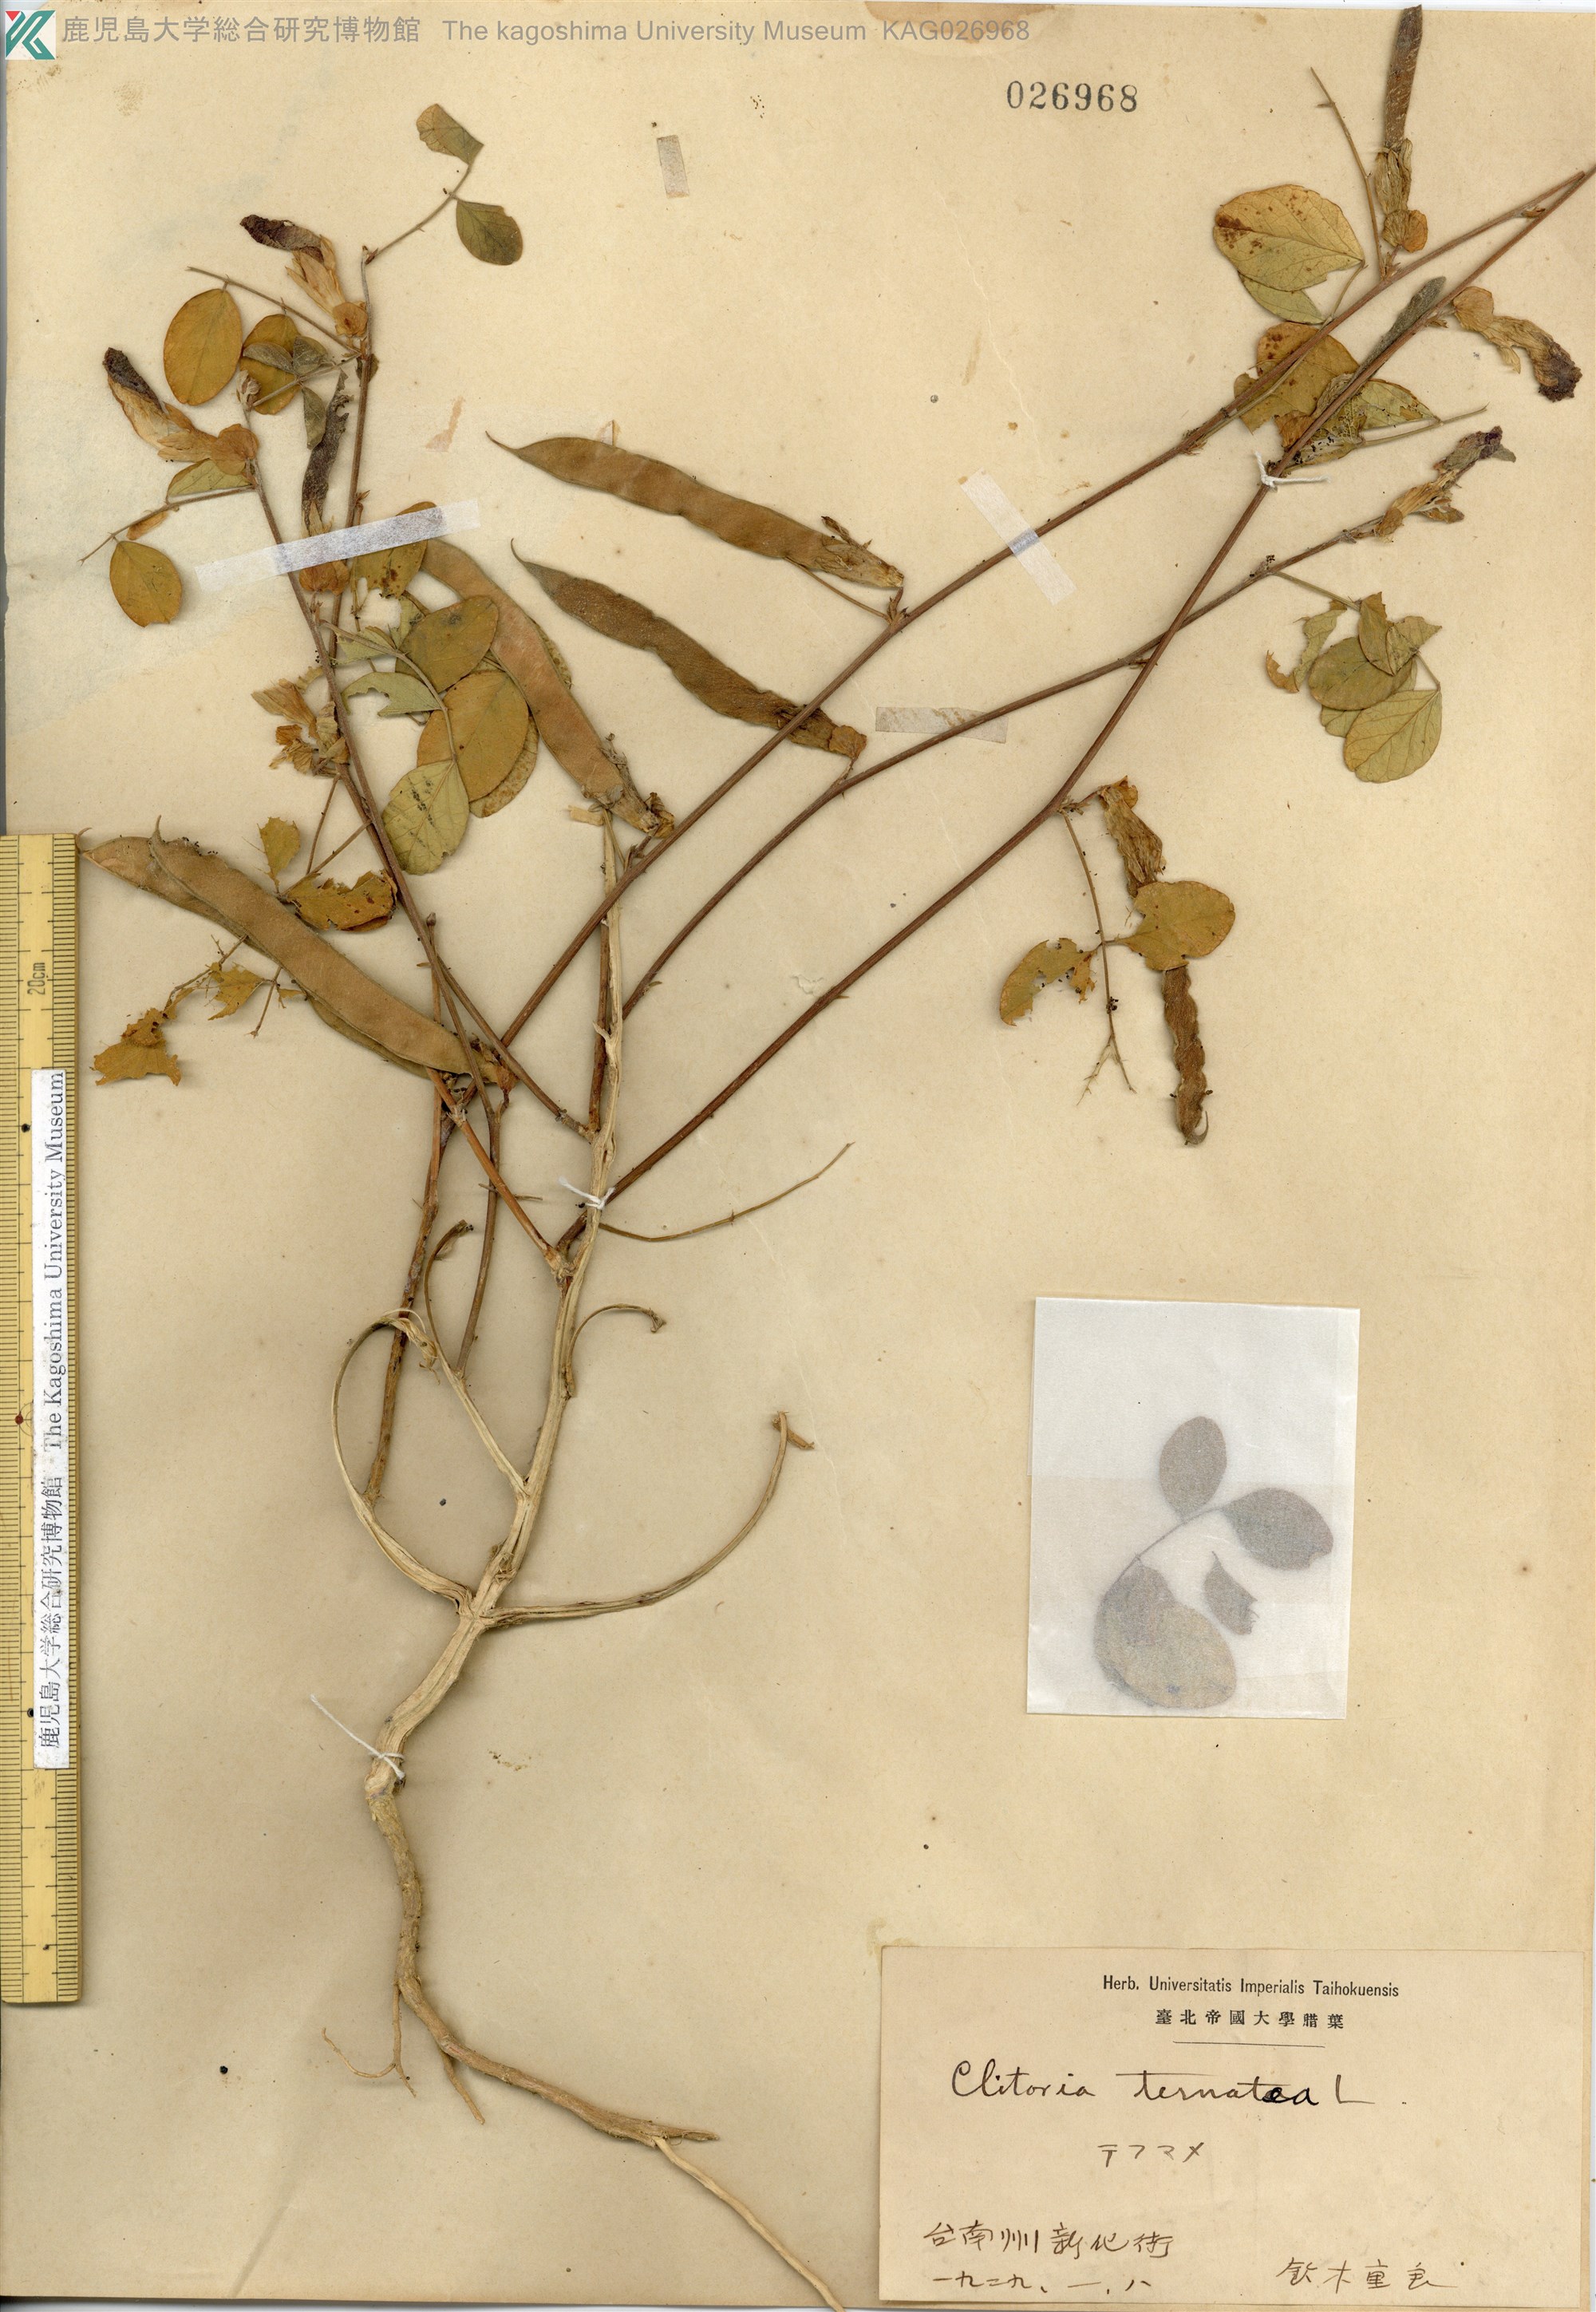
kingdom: Plantae
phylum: Tracheophyta
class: Magnoliopsida
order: Fabales
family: Fabaceae
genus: Clitoria
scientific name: Clitoria ternatea
